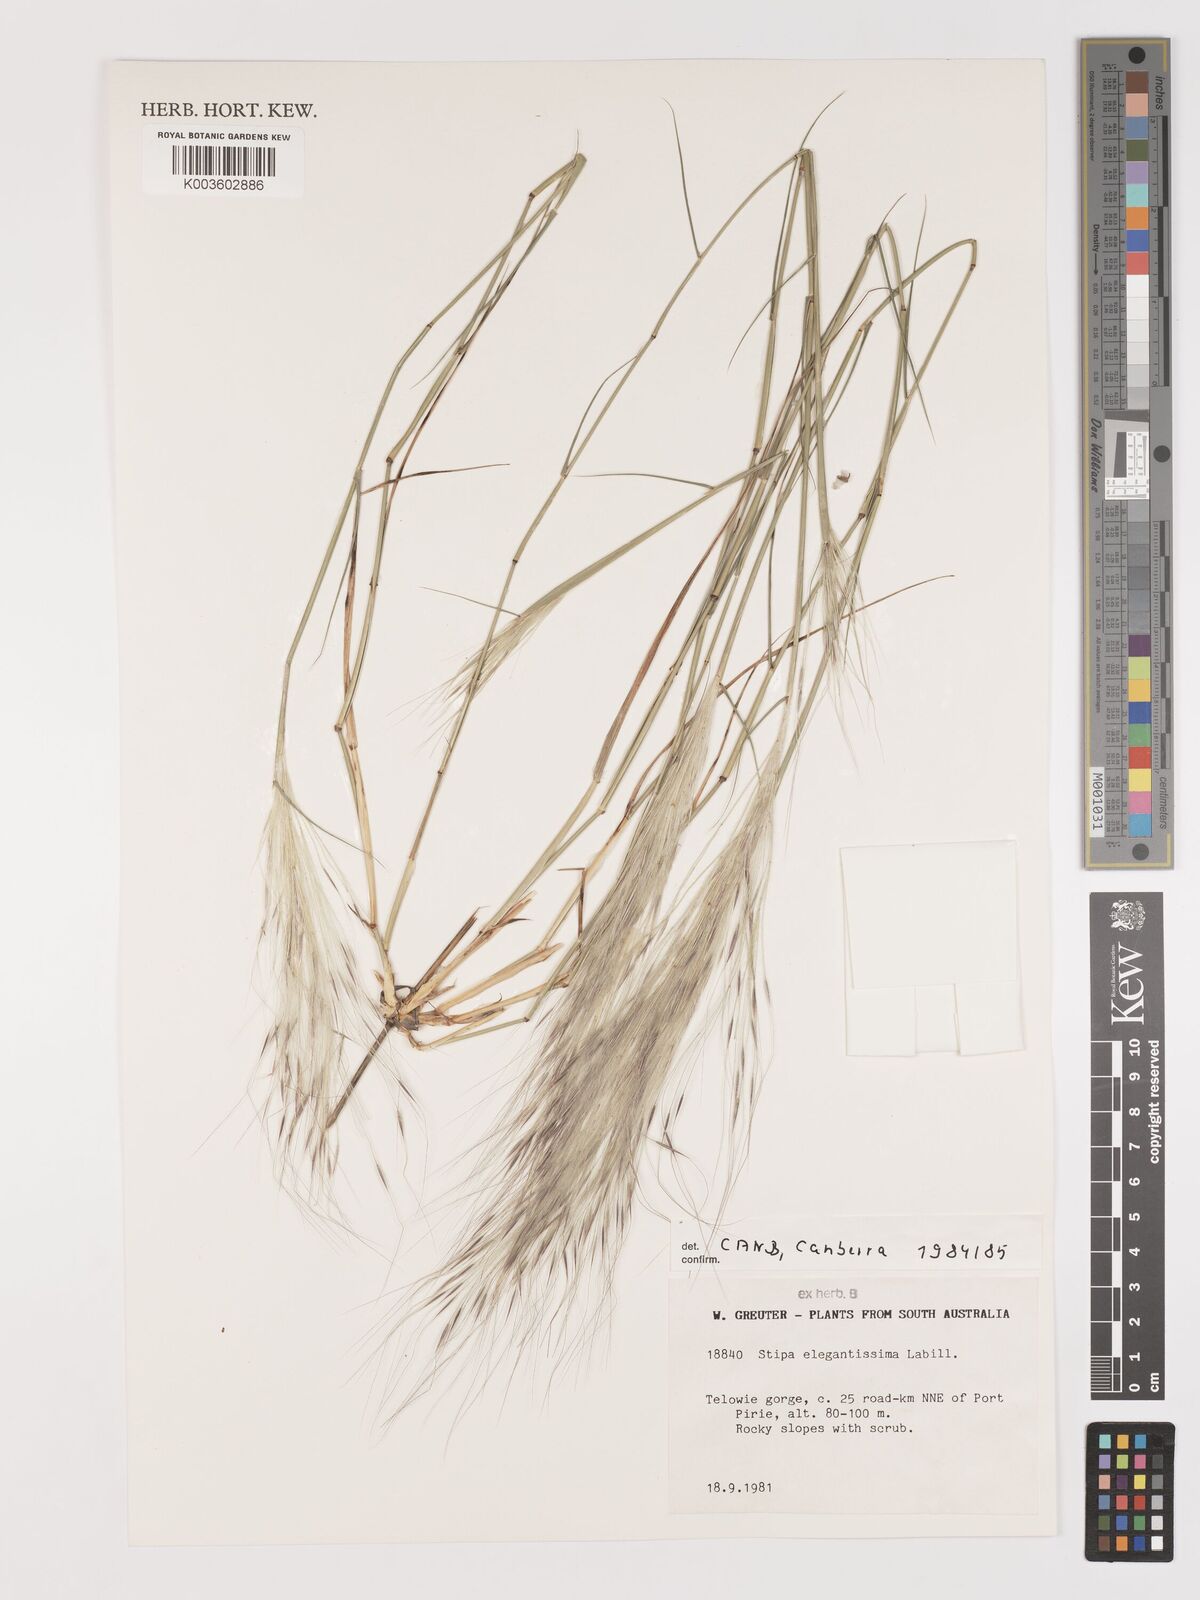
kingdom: Plantae
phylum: Tracheophyta
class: Liliopsida
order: Poales
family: Poaceae
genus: Austrostipa
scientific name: Austrostipa elegantissima
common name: Feather spear grass
